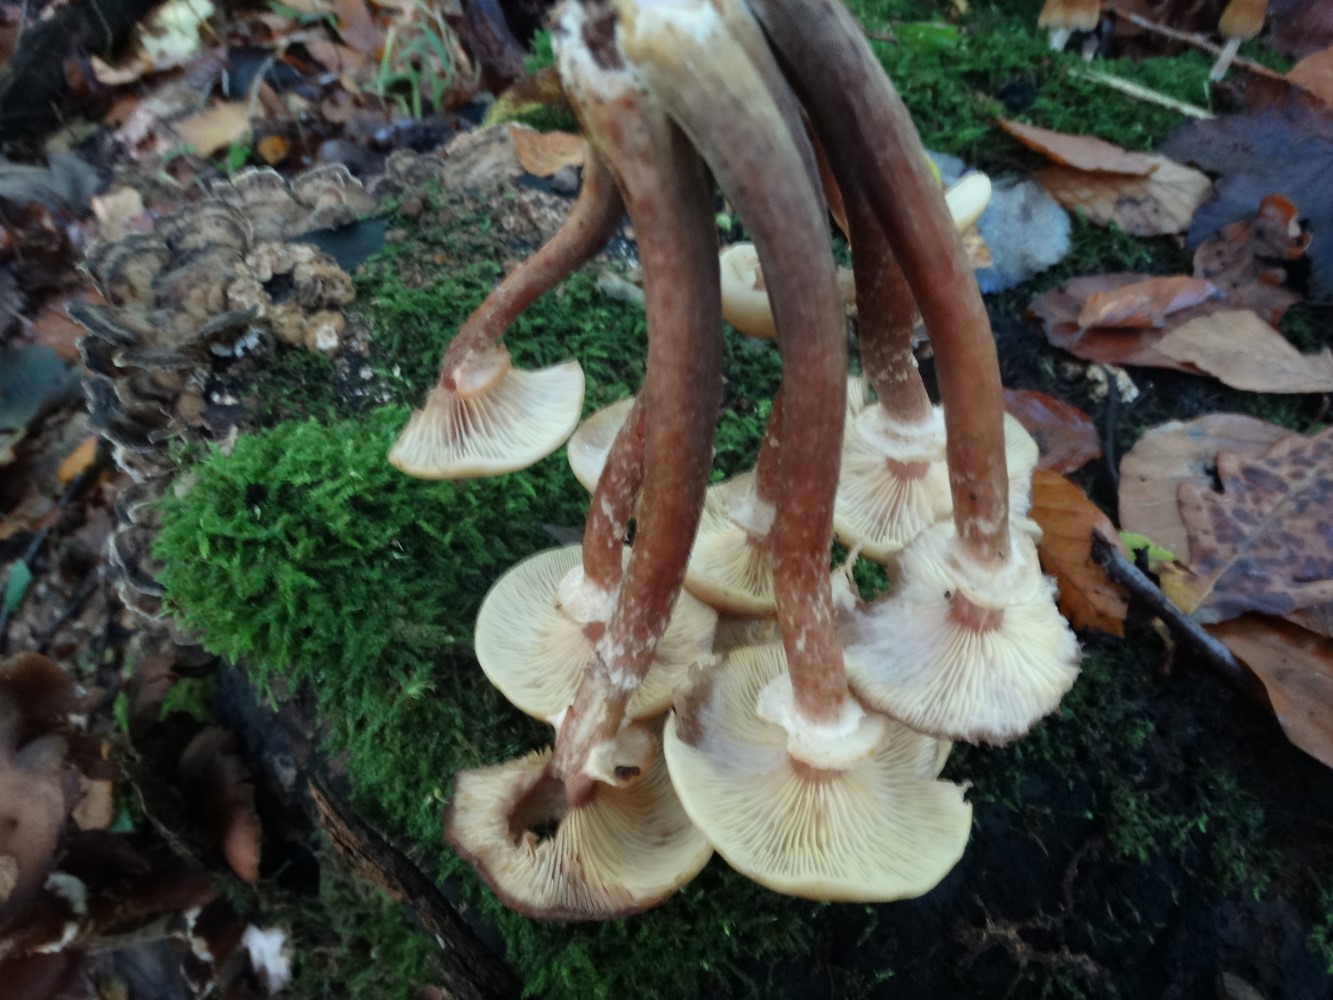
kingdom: Fungi
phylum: Basidiomycota
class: Agaricomycetes
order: Agaricales
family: Physalacriaceae
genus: Armillaria
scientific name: Armillaria mellea
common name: ægte honningsvamp
